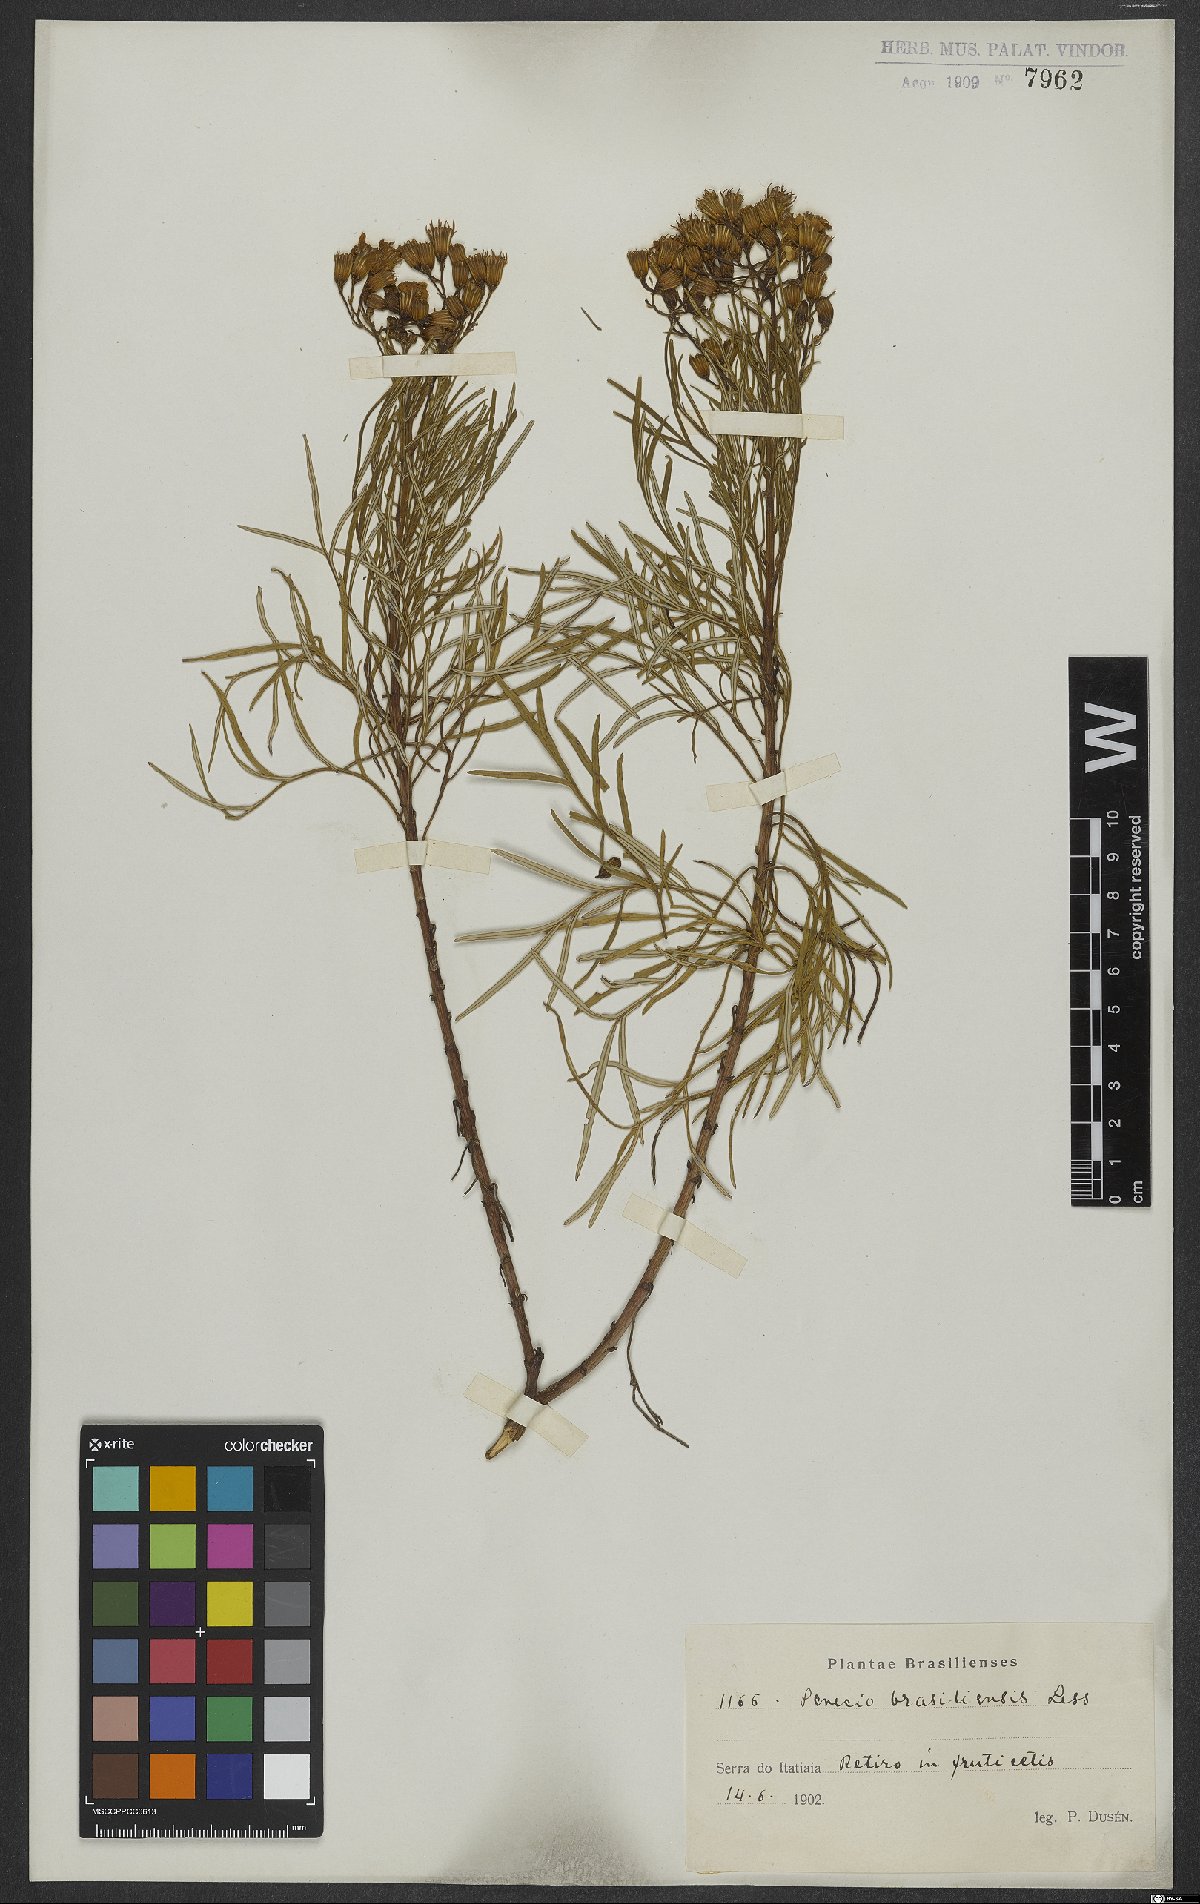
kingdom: Plantae
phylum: Tracheophyta
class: Magnoliopsida
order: Asterales
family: Asteraceae
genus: Senecio
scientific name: Senecio brasiliensis
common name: Hemp-leaf ragwort
